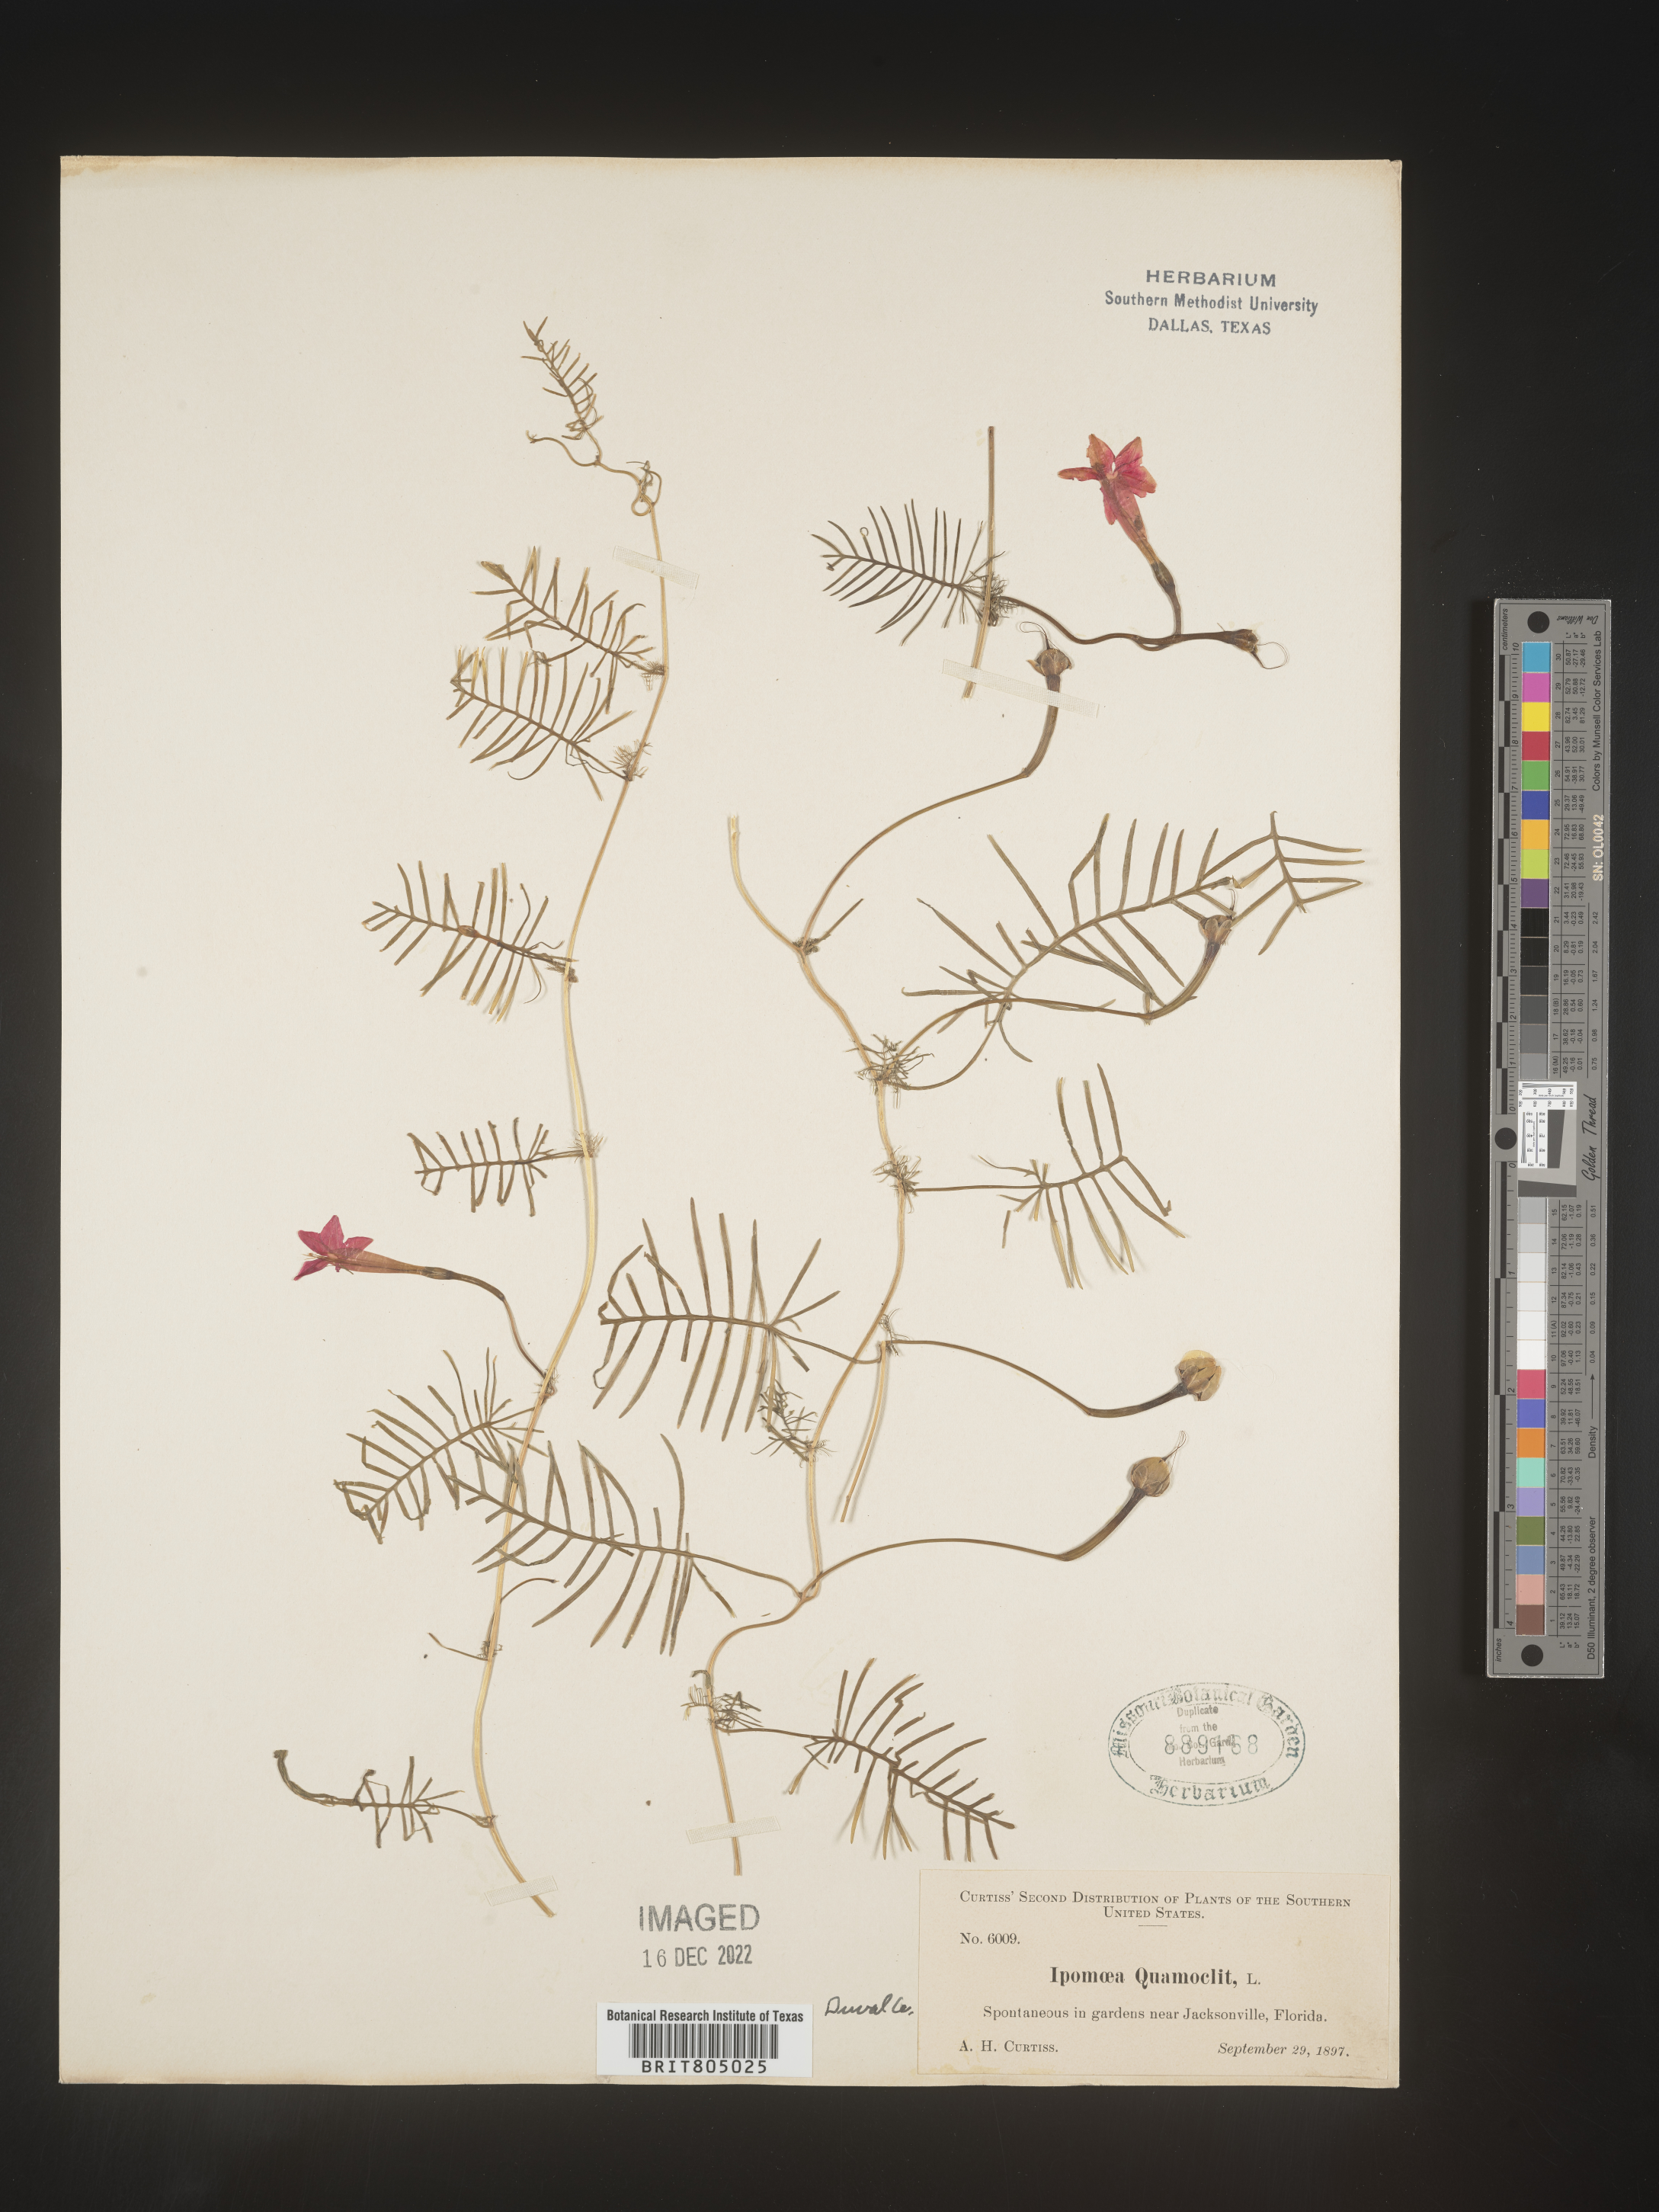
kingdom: Plantae
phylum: Tracheophyta
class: Magnoliopsida
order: Solanales
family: Convolvulaceae
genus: Ipomoea
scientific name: Ipomoea quamoclit
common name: Cypress vine
